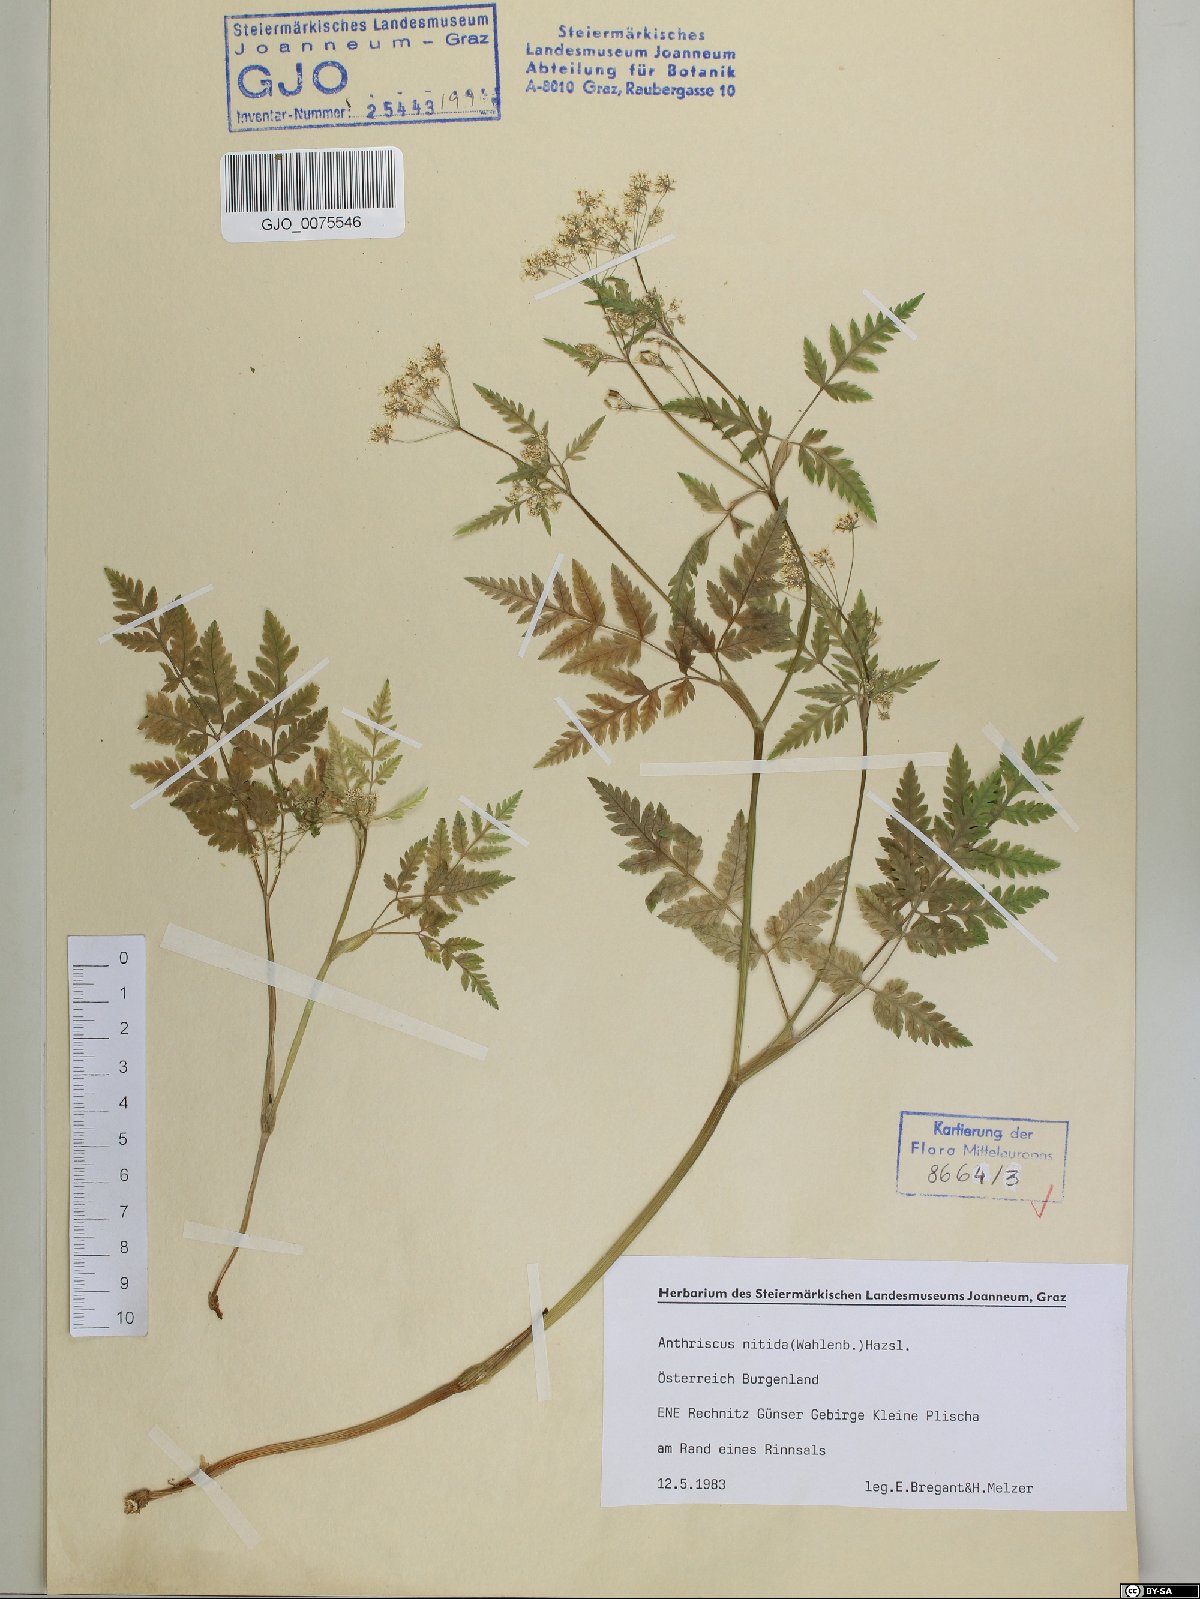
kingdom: Plantae
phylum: Tracheophyta
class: Magnoliopsida
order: Apiales
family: Apiaceae
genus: Anthriscus
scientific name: Anthriscus nitida
